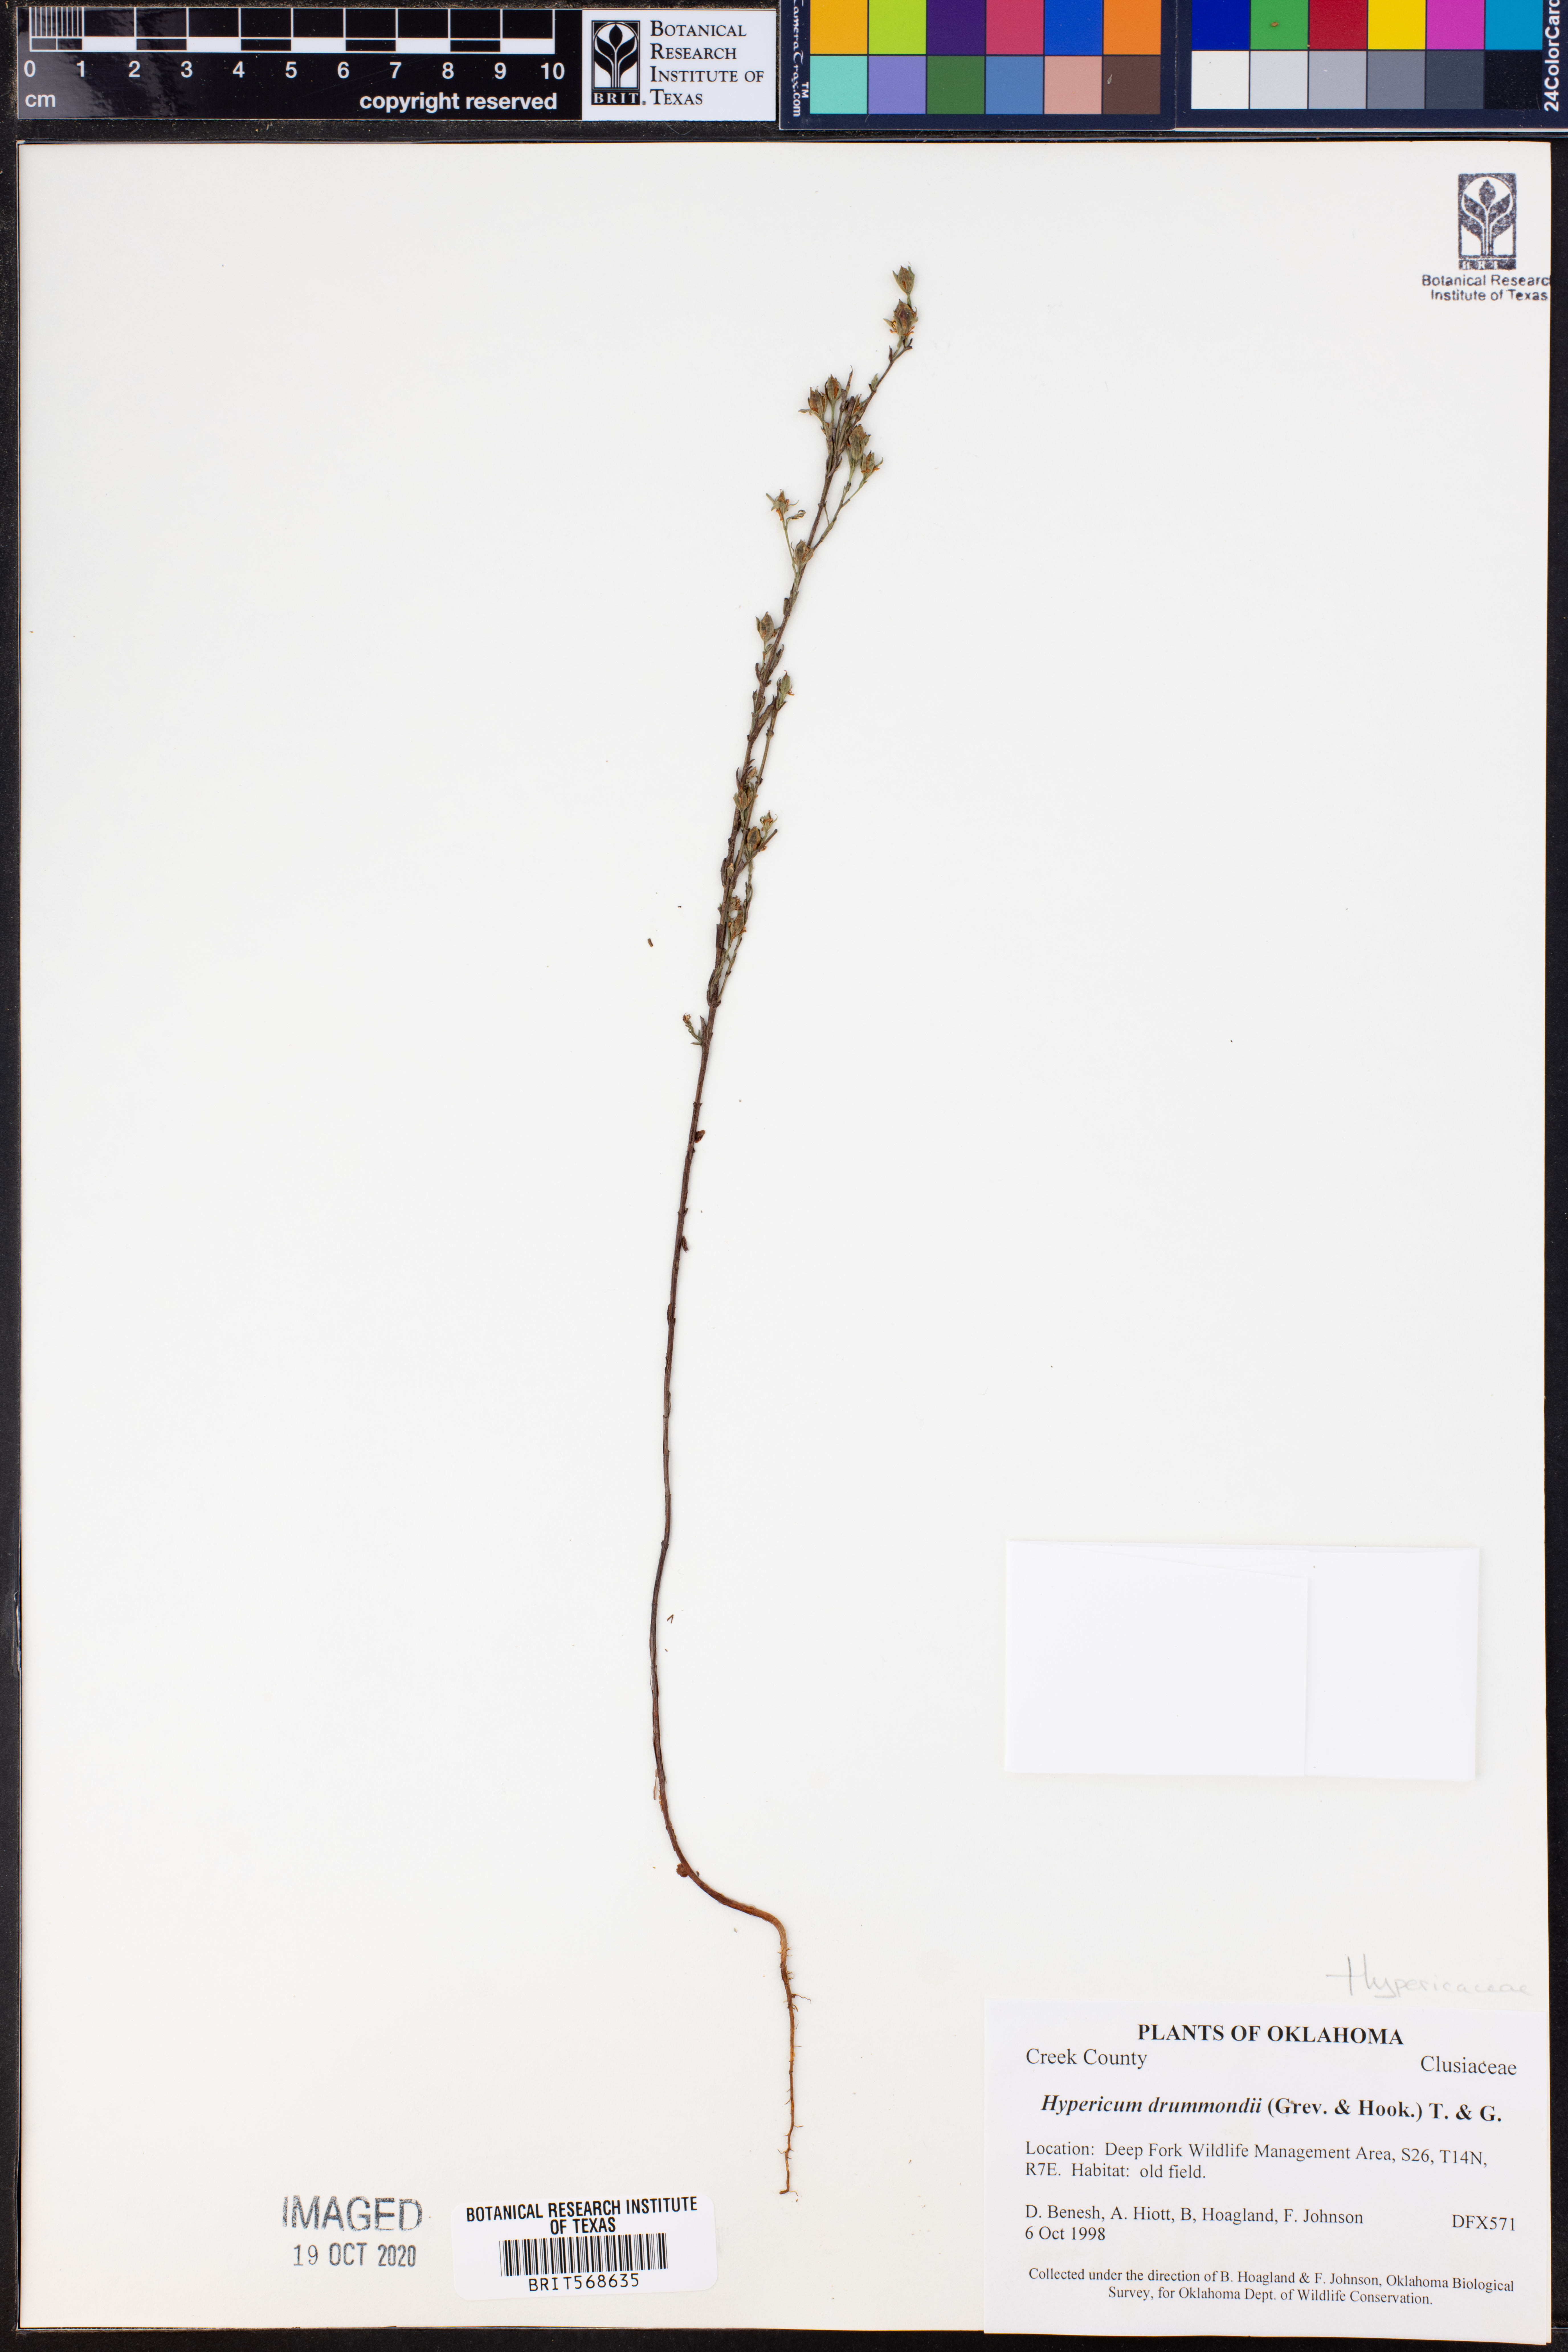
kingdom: Plantae
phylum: Tracheophyta
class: Magnoliopsida
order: Malpighiales
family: Hypericaceae
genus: Hypericum
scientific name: Hypericum drummondii
